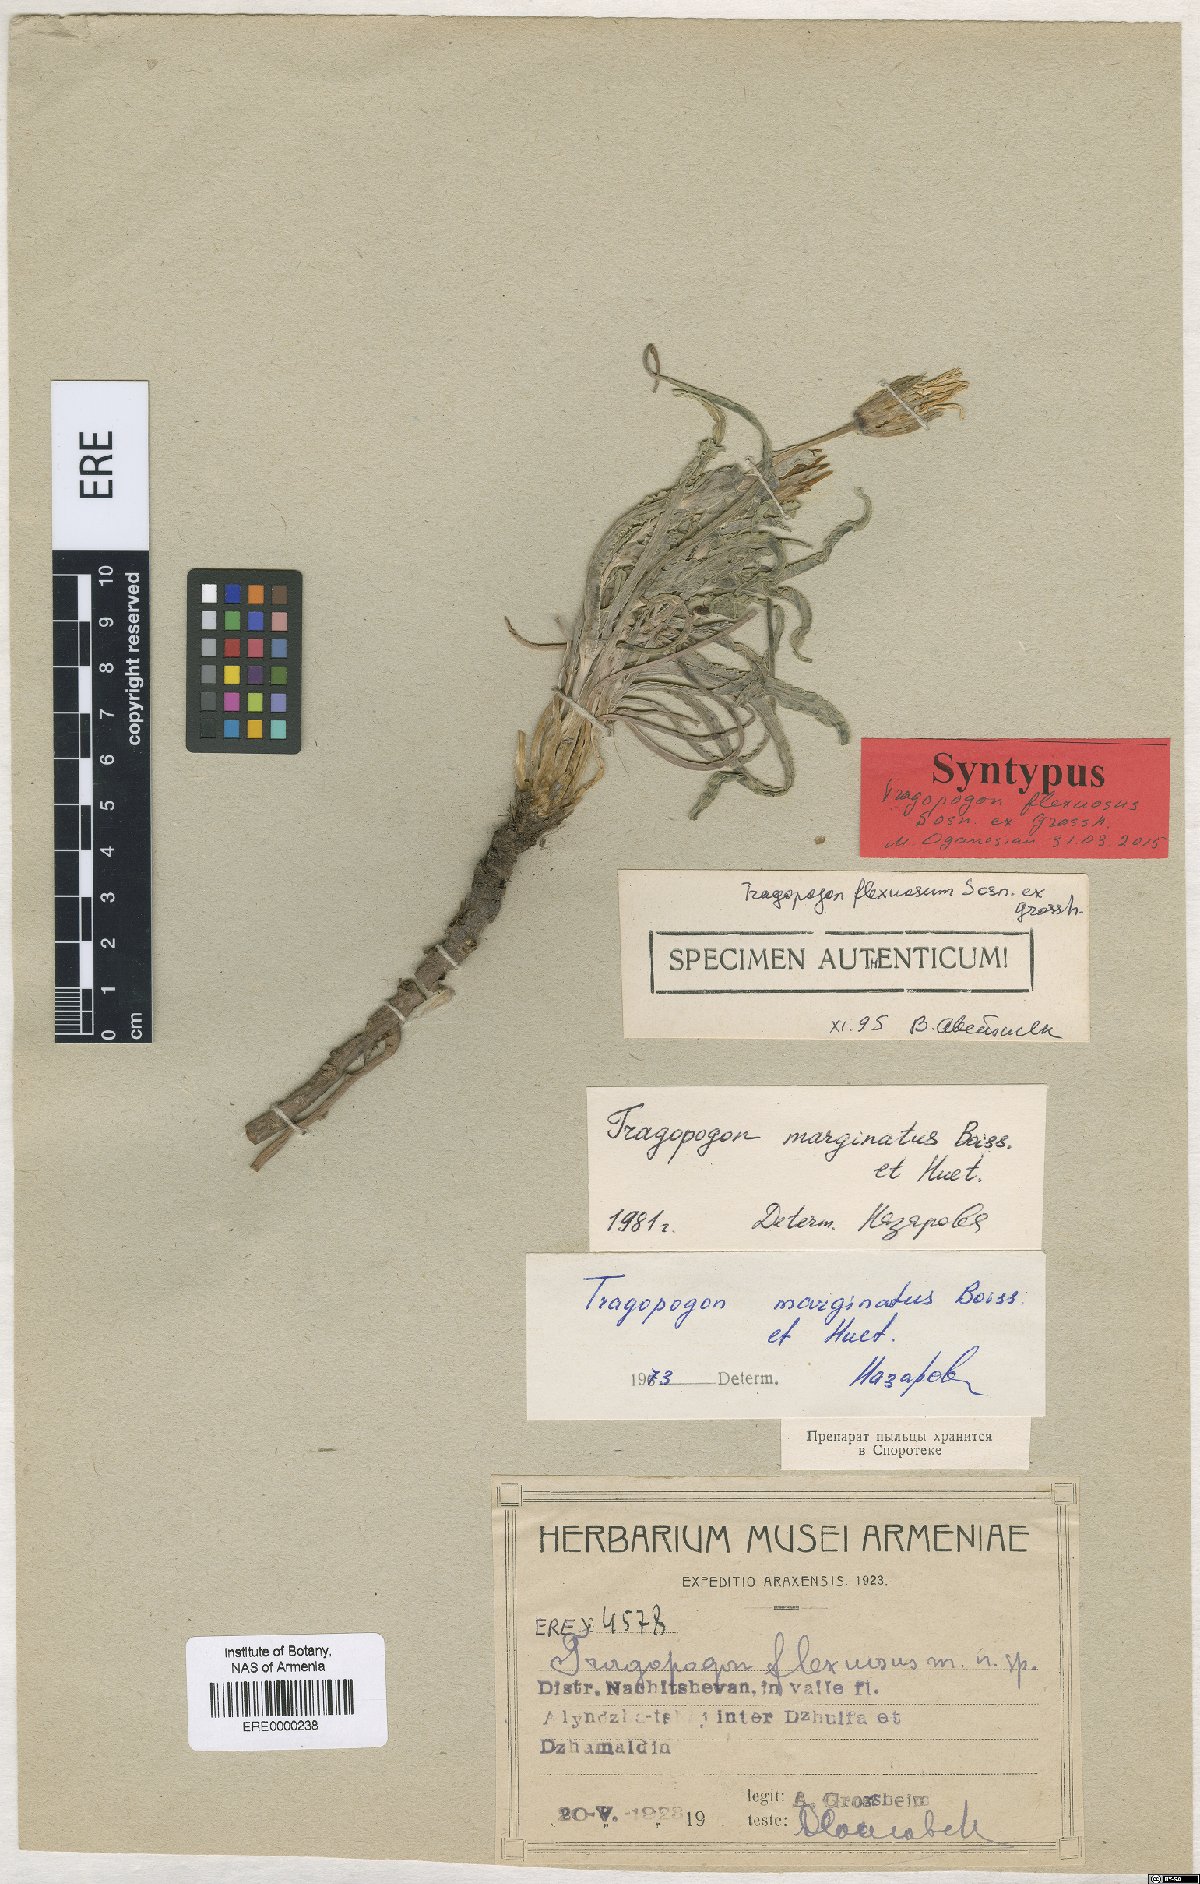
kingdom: Plantae
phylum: Tracheophyta
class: Magnoliopsida
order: Asterales
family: Asteraceae
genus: Tragopogon
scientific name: Tragopogon marginatus
